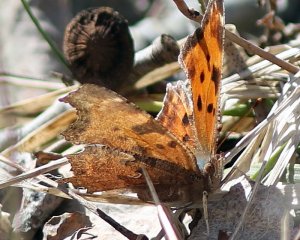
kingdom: Animalia
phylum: Arthropoda
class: Insecta
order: Lepidoptera
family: Nymphalidae
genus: Polygonia
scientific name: Polygonia comma
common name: Eastern Comma
